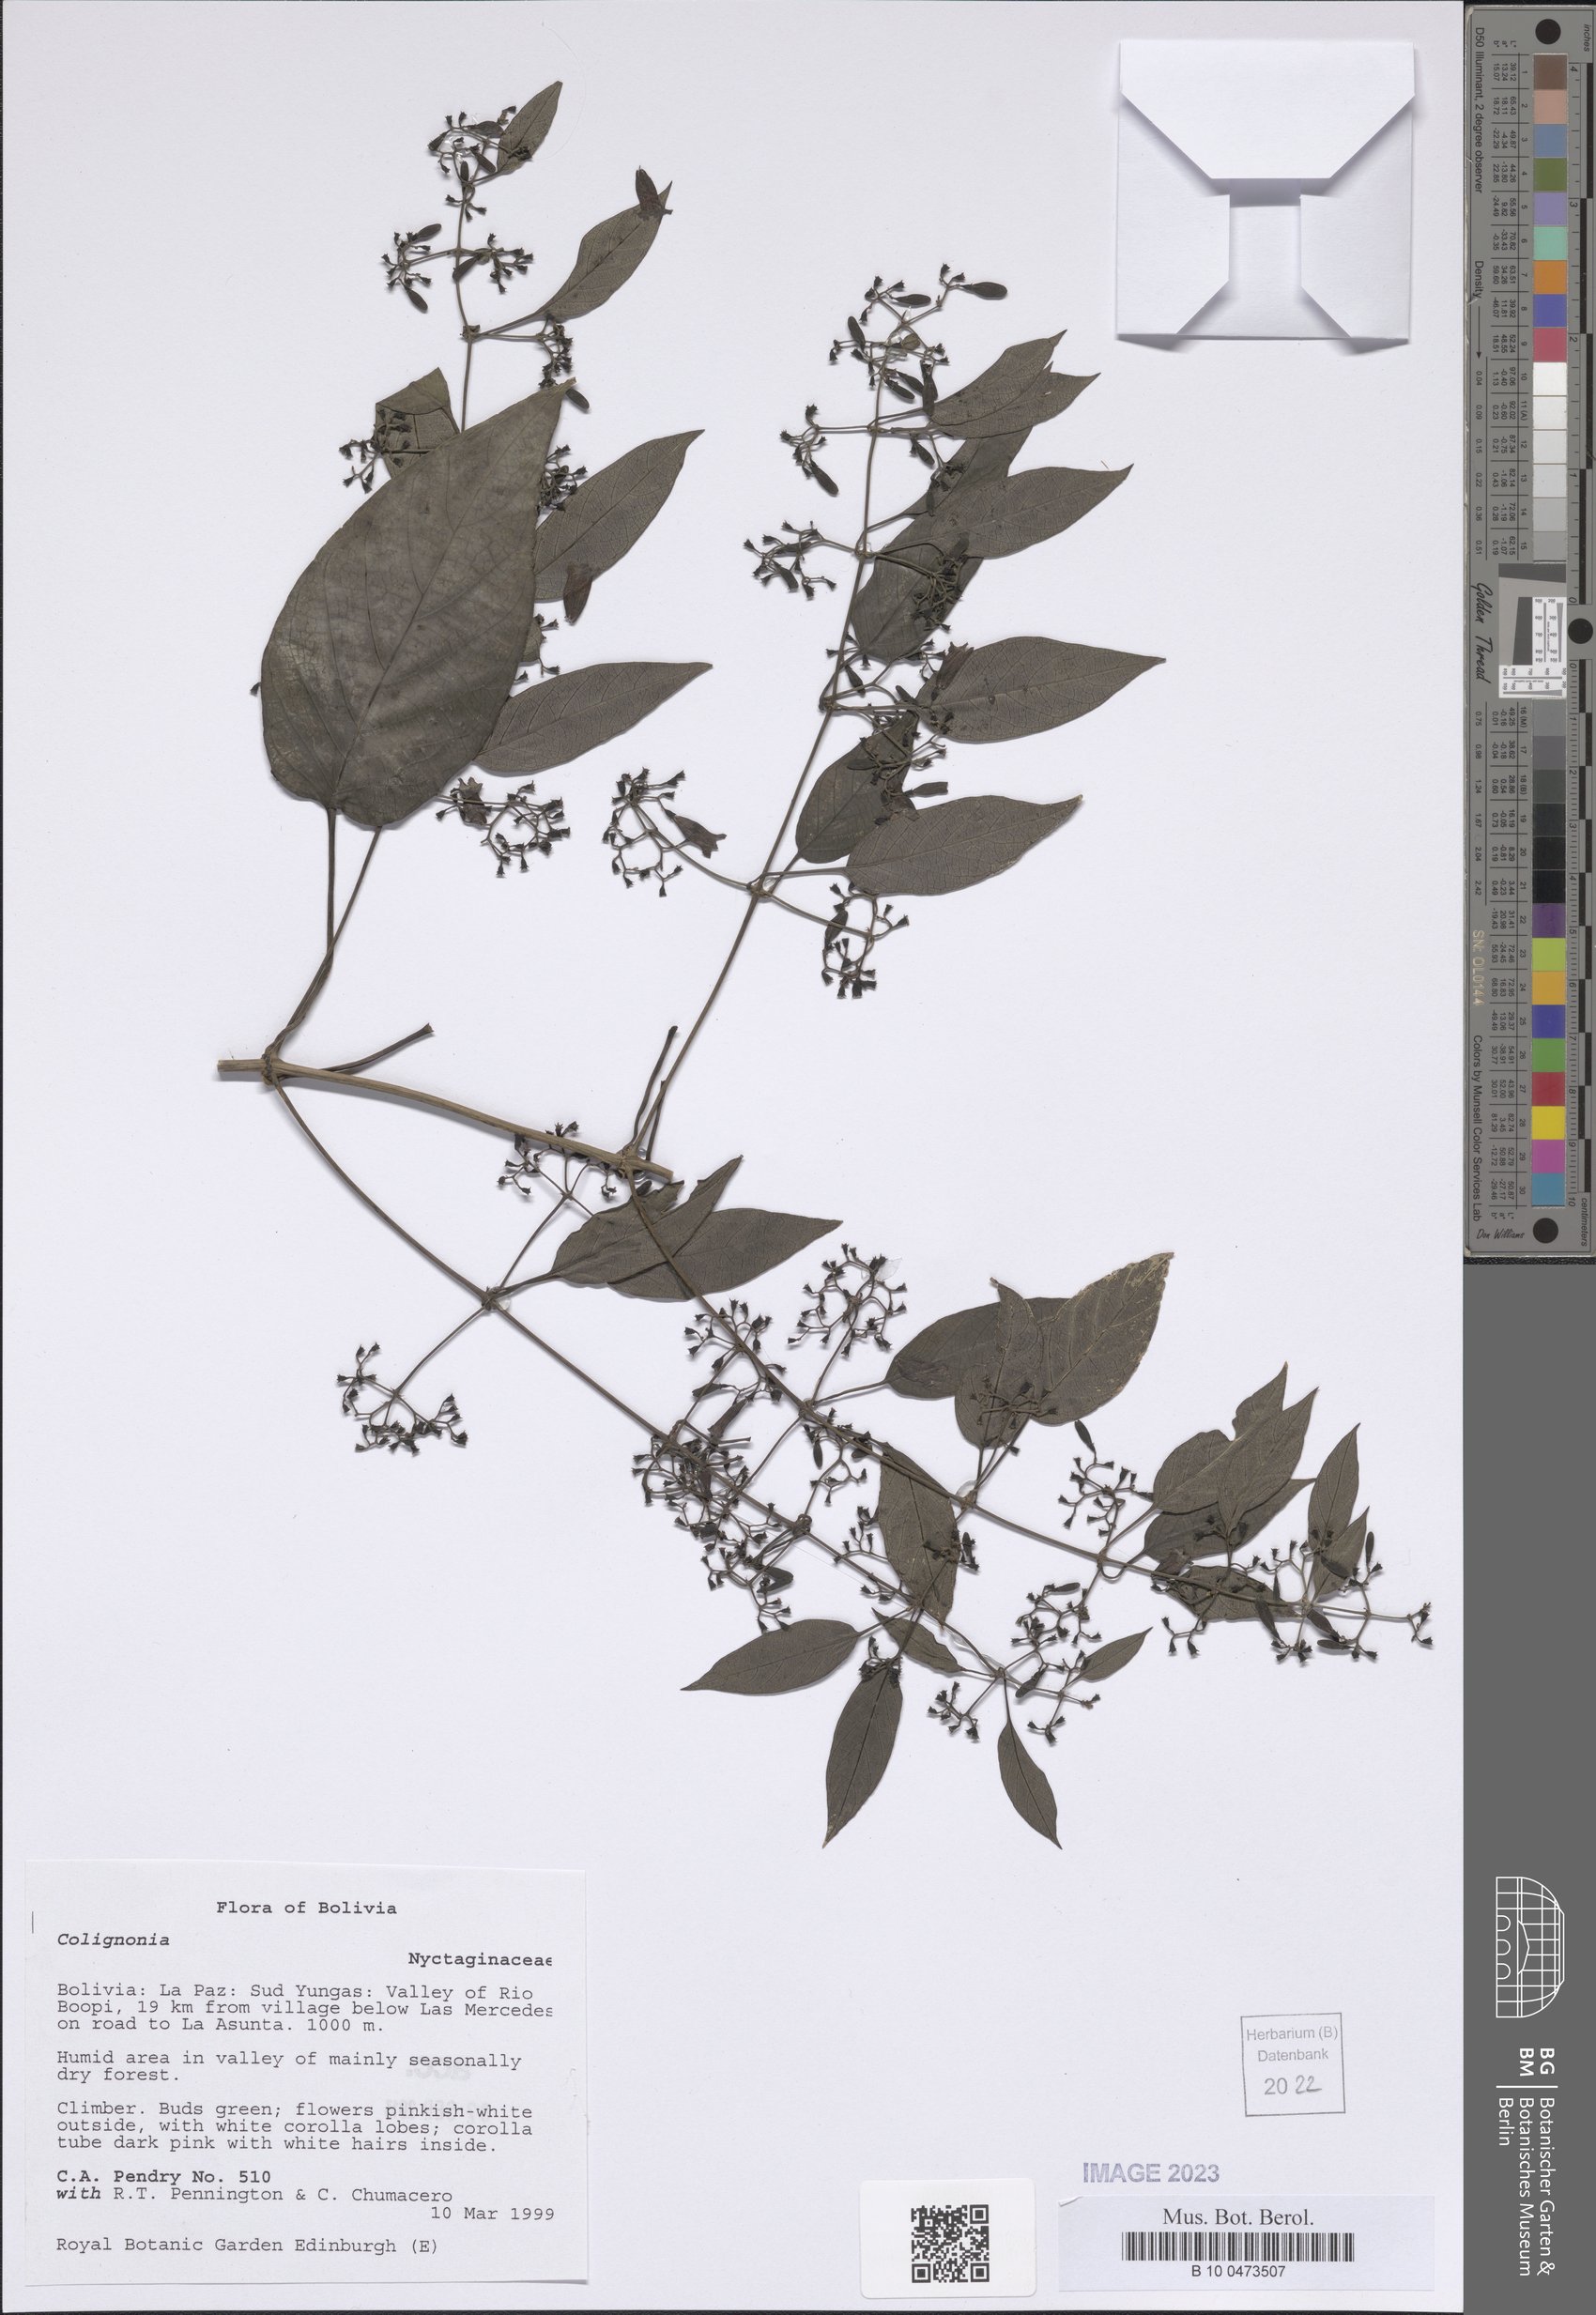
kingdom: Plantae
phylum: Tracheophyta
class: Magnoliopsida
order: Caryophyllales
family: Nyctaginaceae
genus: Colignonia
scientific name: Colignonia
